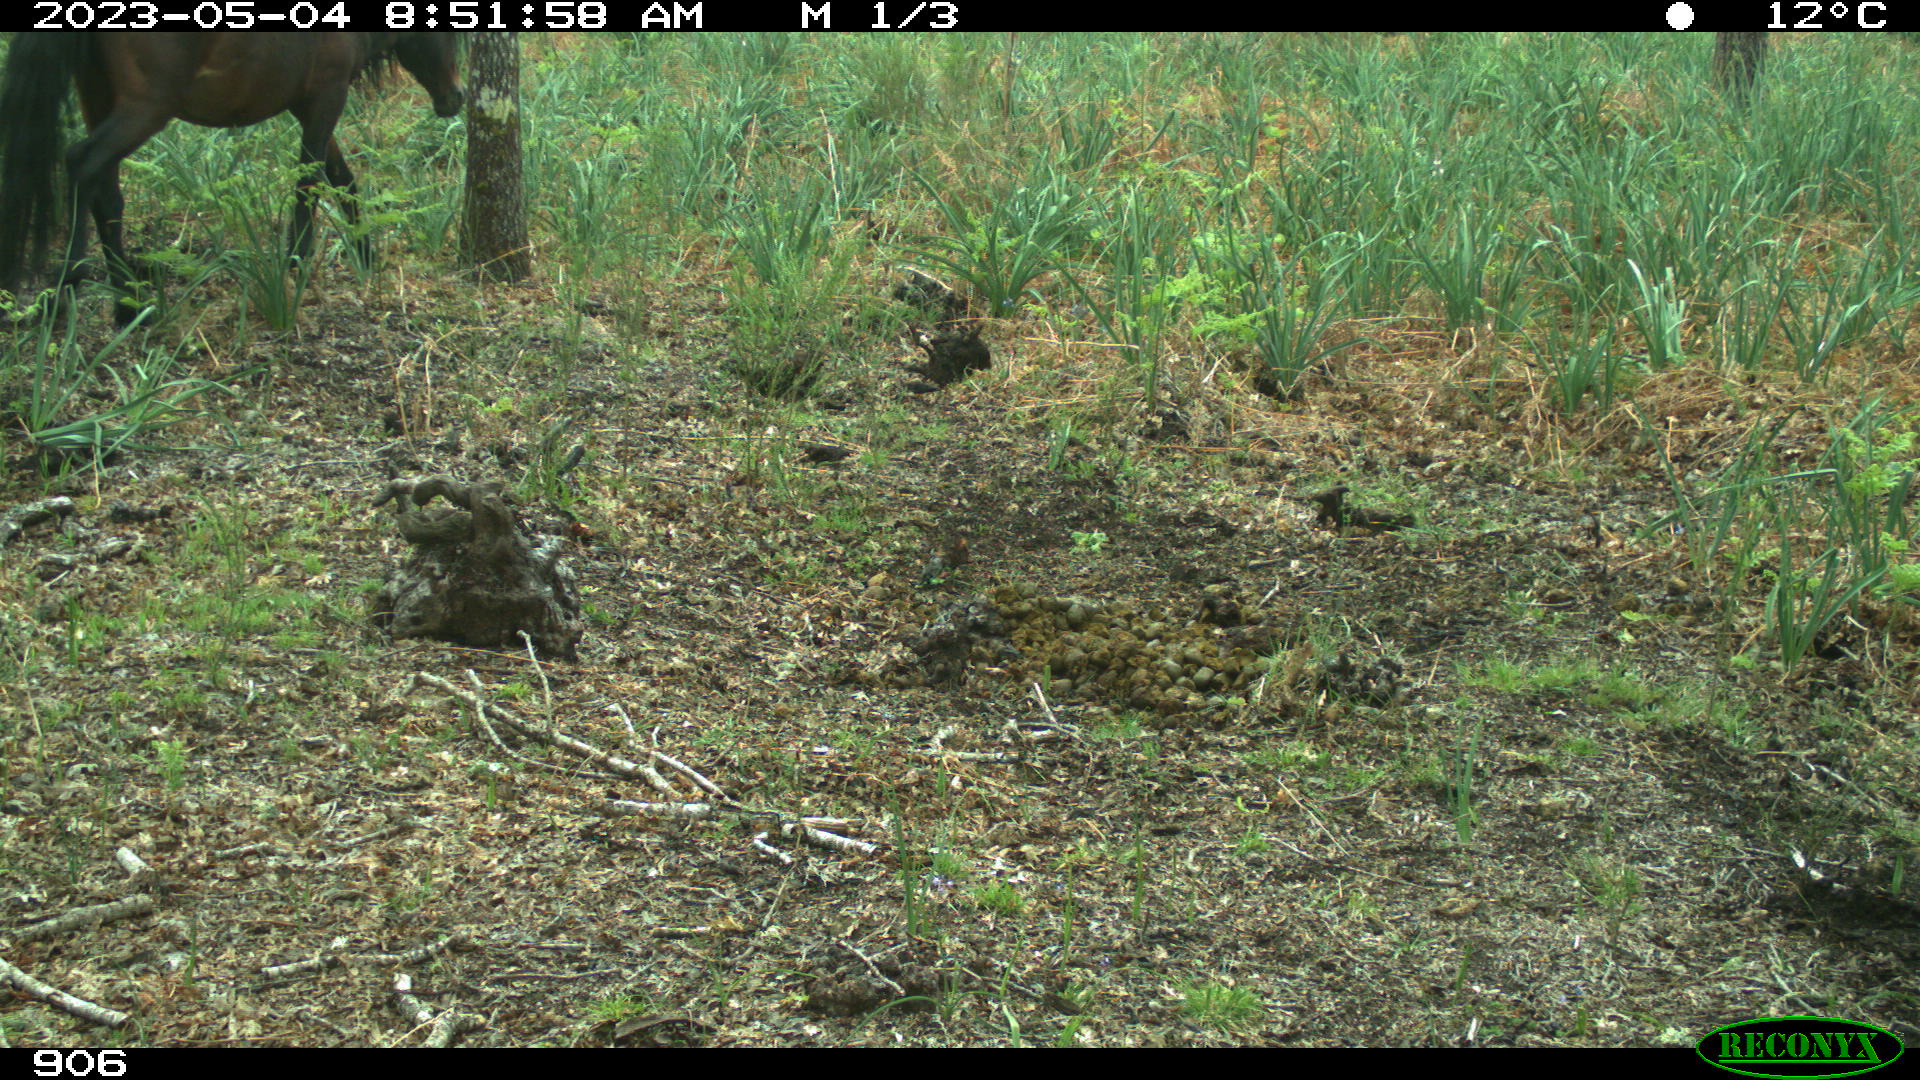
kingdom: Animalia
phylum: Chordata
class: Mammalia
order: Perissodactyla
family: Equidae
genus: Equus
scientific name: Equus caballus
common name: Horse
